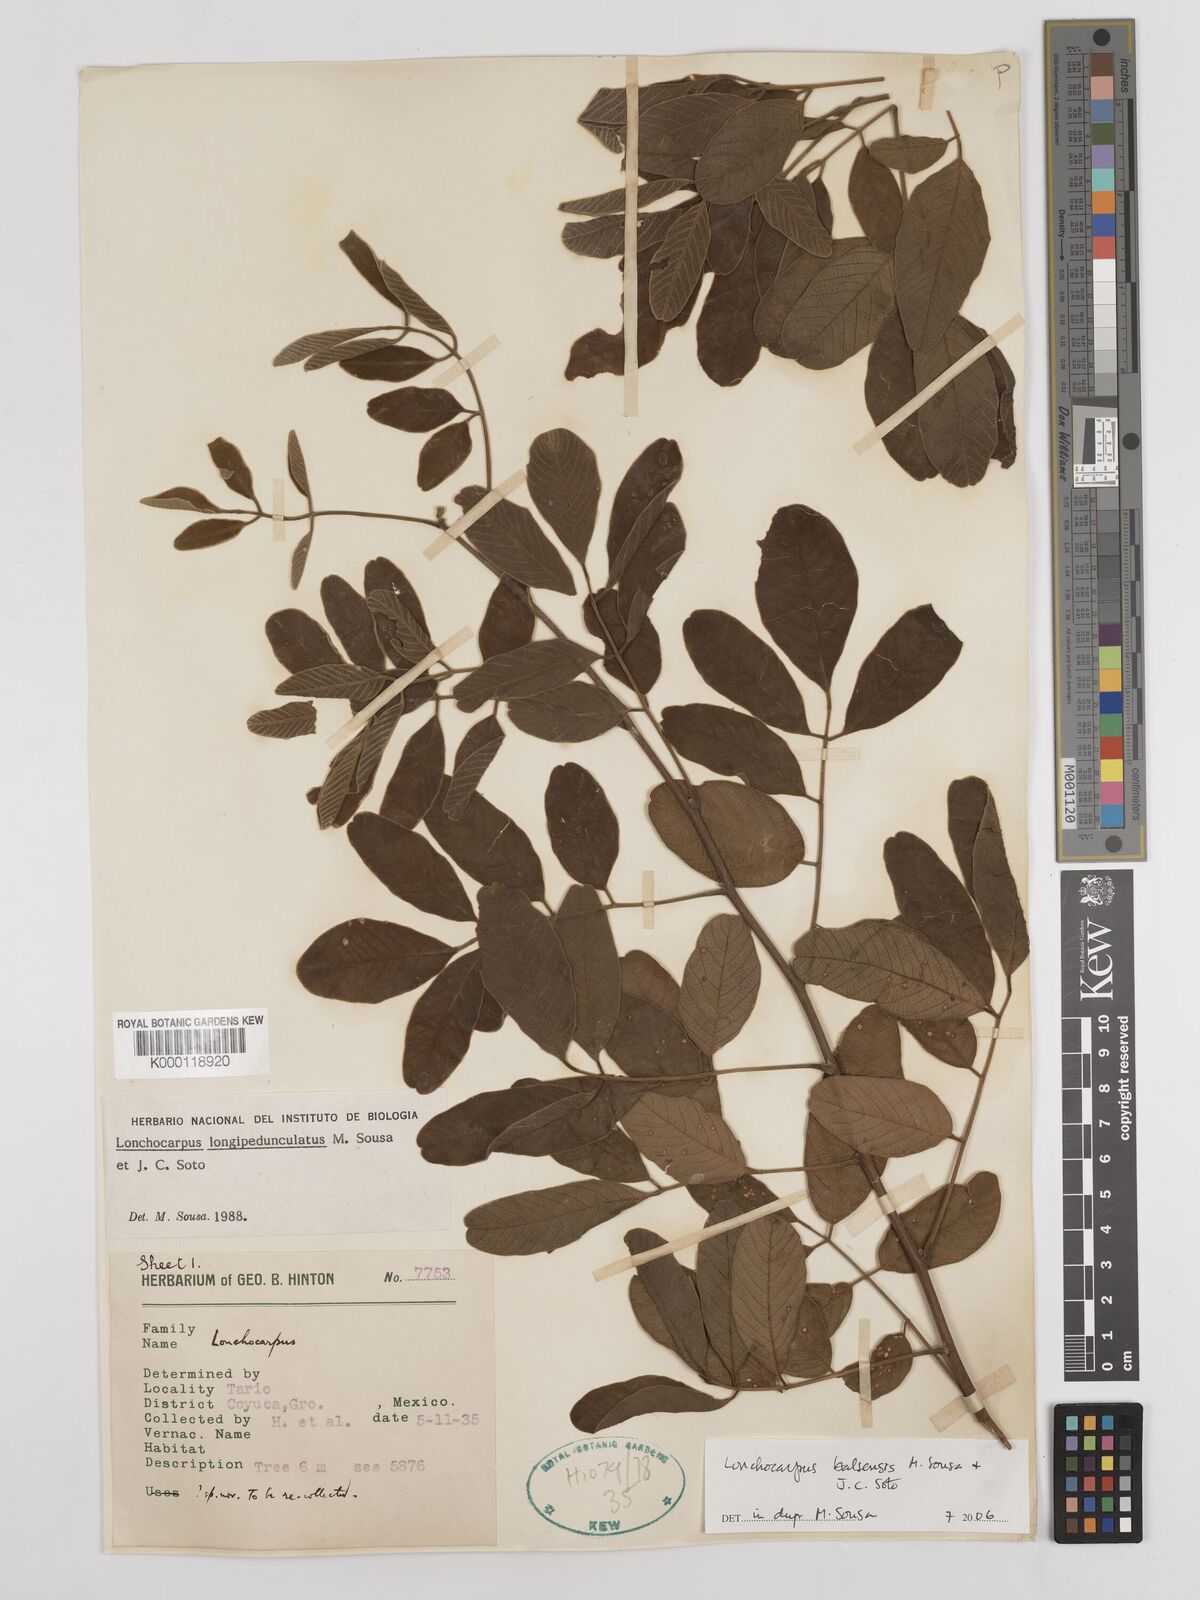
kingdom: Plantae
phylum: Tracheophyta
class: Magnoliopsida
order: Fabales
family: Fabaceae
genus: Lonchocarpus
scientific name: Lonchocarpus balsensis
